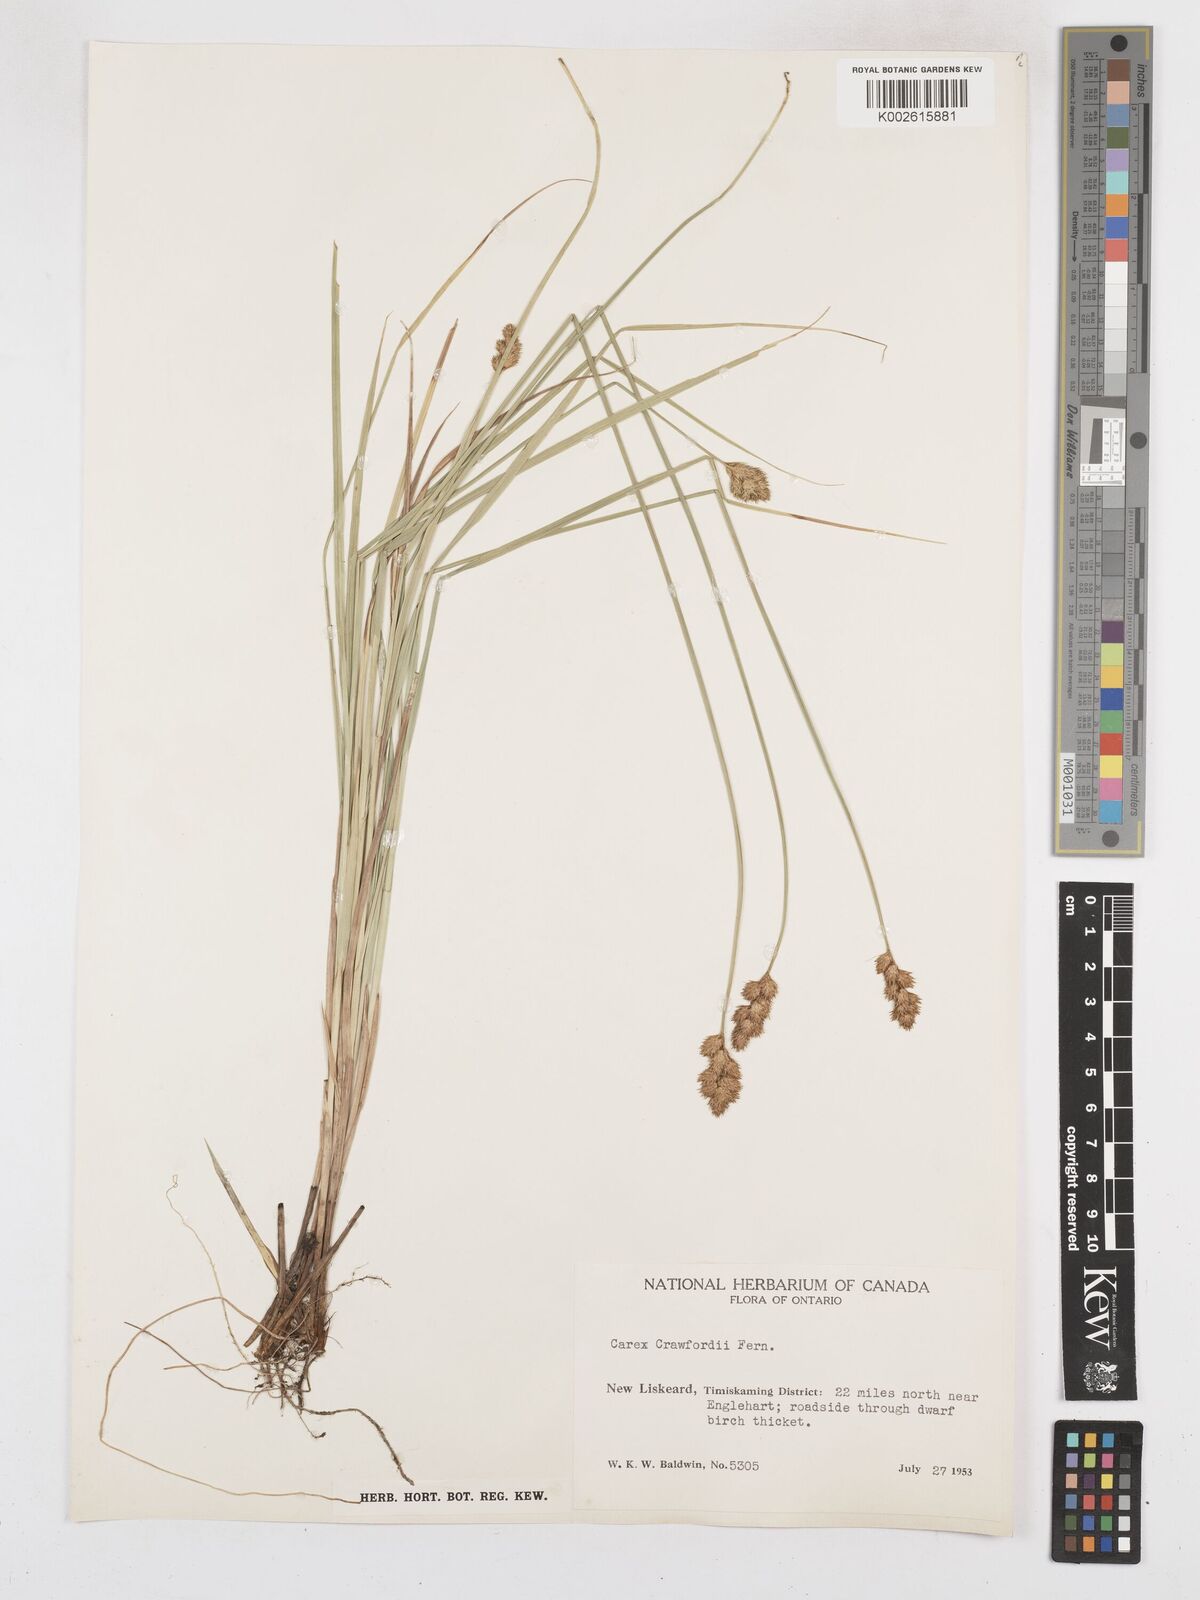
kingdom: Plantae
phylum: Tracheophyta
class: Liliopsida
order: Poales
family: Cyperaceae
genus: Carex
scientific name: Carex crawfordii
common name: Crawford's sedge
